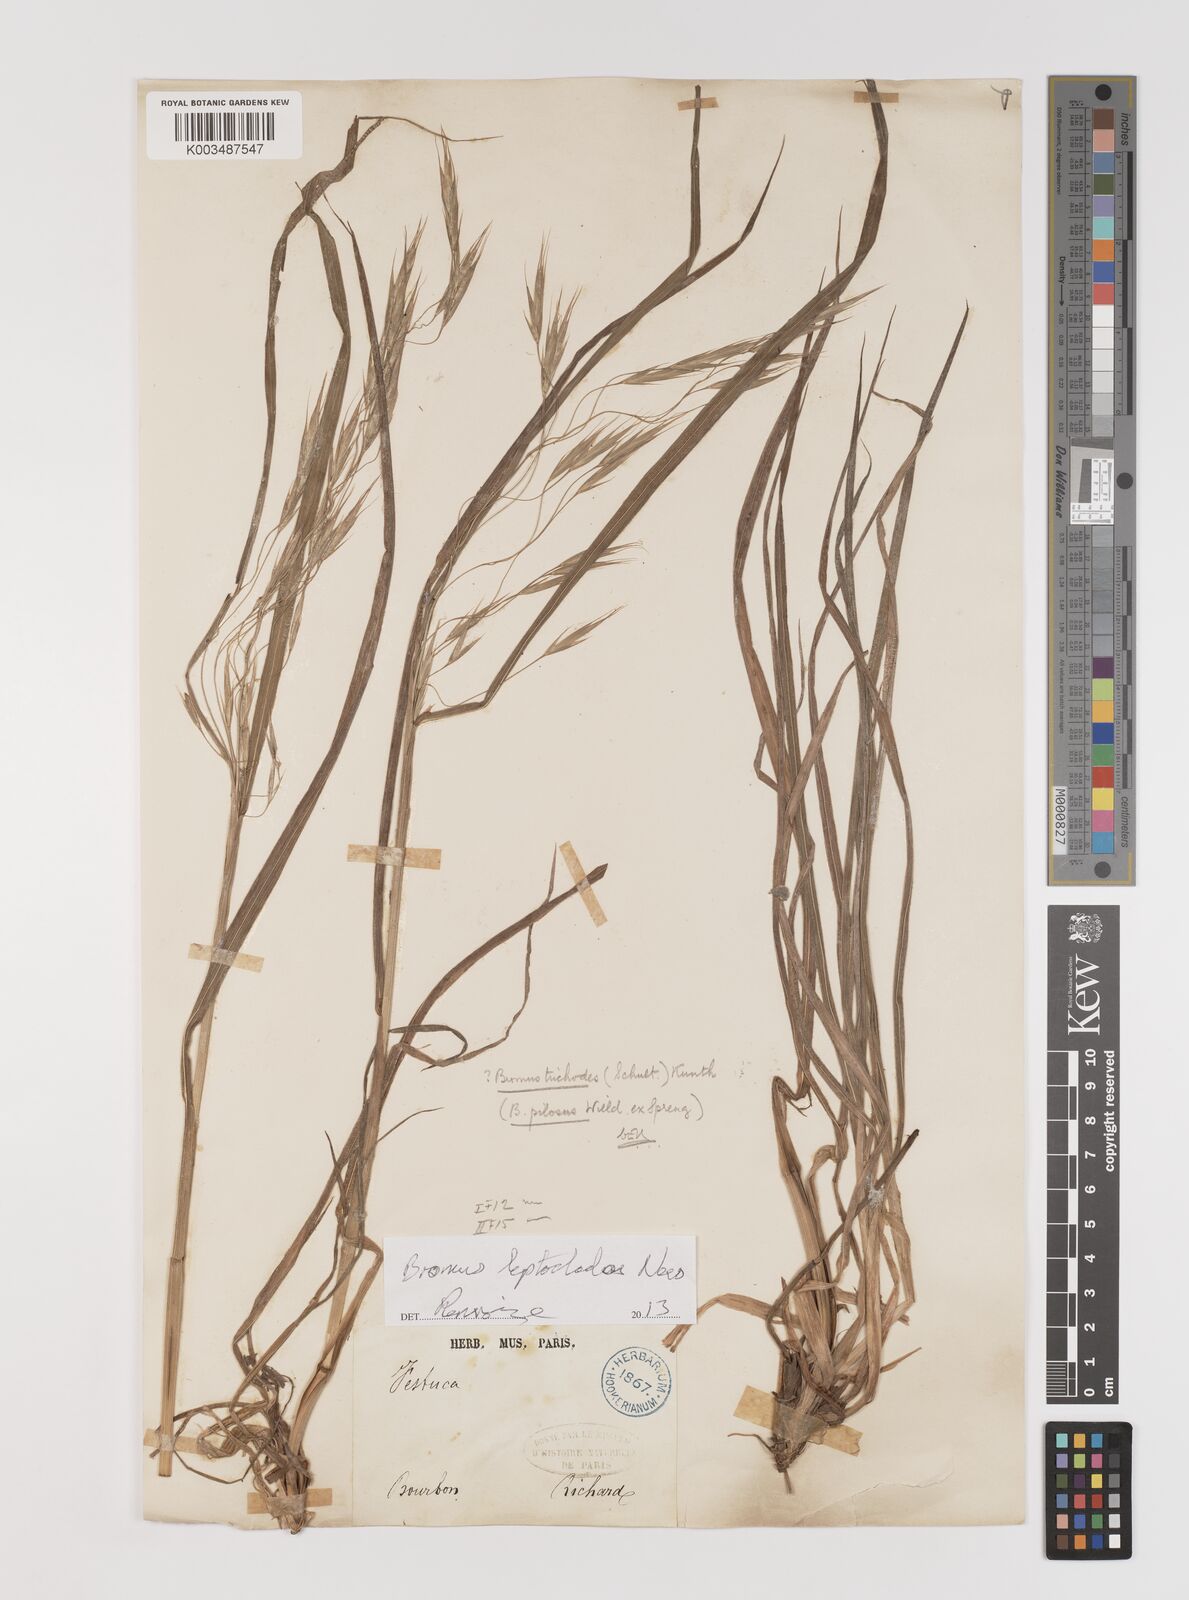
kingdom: Plantae
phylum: Tracheophyta
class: Liliopsida
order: Poales
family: Poaceae
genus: Bromus
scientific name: Bromus leptoclados
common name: Mountain bromegrass
